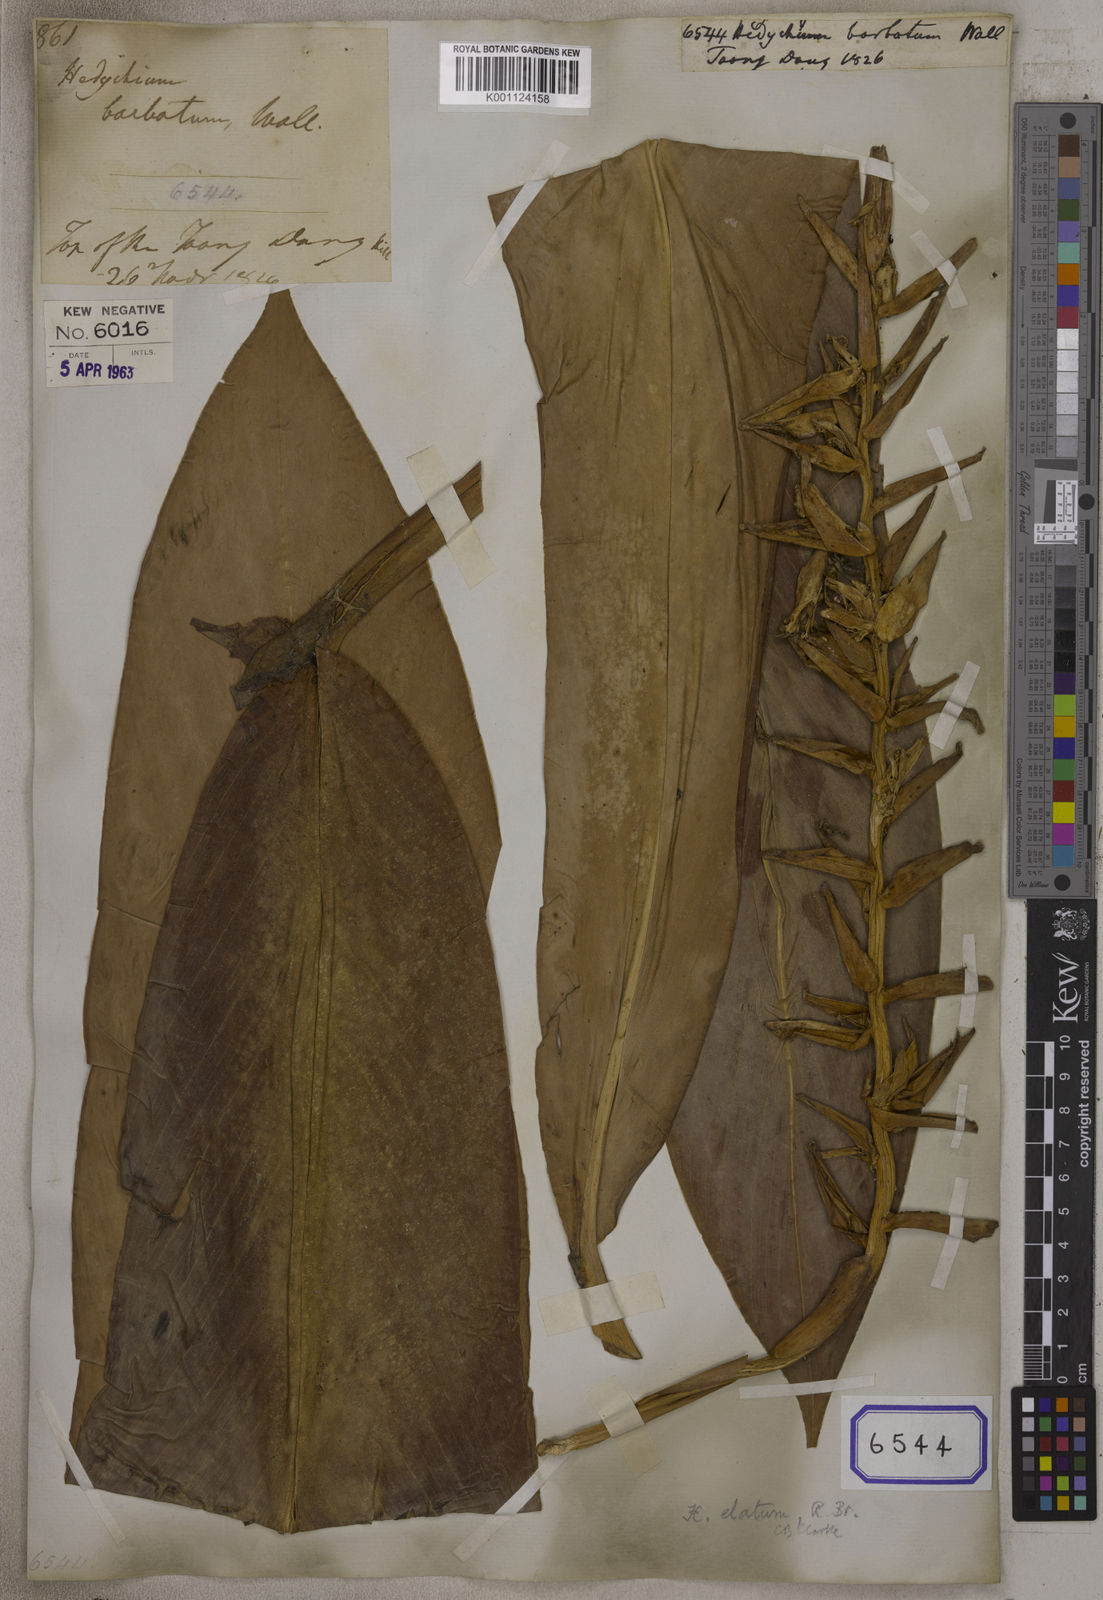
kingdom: Plantae
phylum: Tracheophyta
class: Liliopsida
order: Zingiberales
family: Zingiberaceae
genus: Hedychium
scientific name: Hedychium stenopetalum
